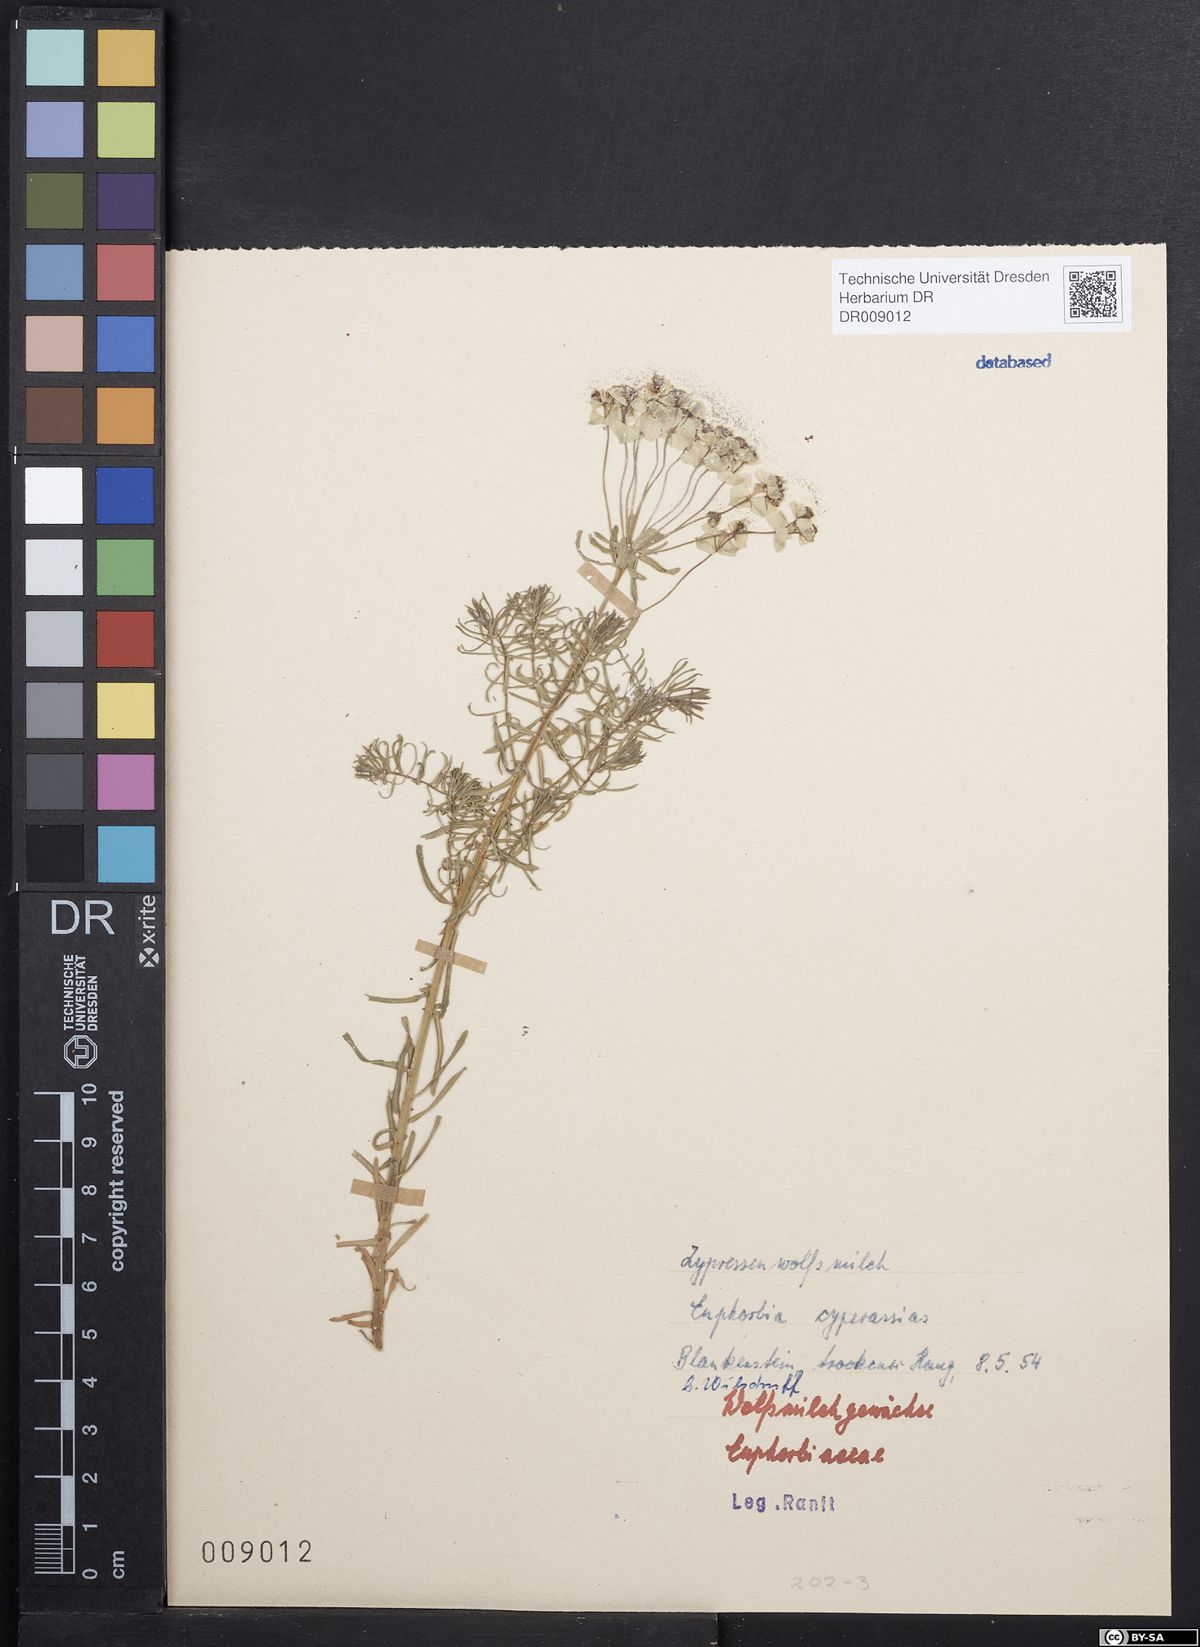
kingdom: Plantae
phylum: Tracheophyta
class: Magnoliopsida
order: Malpighiales
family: Euphorbiaceae
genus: Euphorbia
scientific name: Euphorbia cyparissias
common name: Cypress spurge
